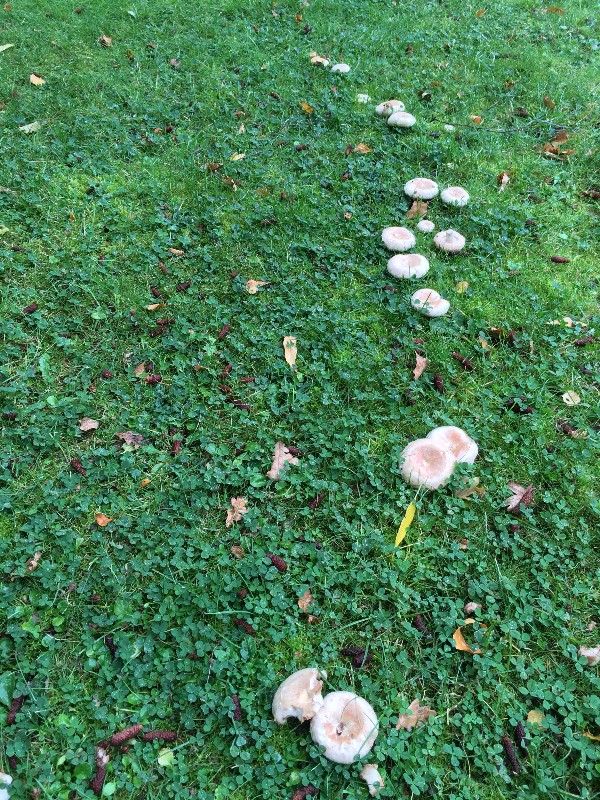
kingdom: Fungi
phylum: Basidiomycota
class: Agaricomycetes
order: Russulales
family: Russulaceae
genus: Lactarius
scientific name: Lactarius pubescens
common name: dunet mælkehat
